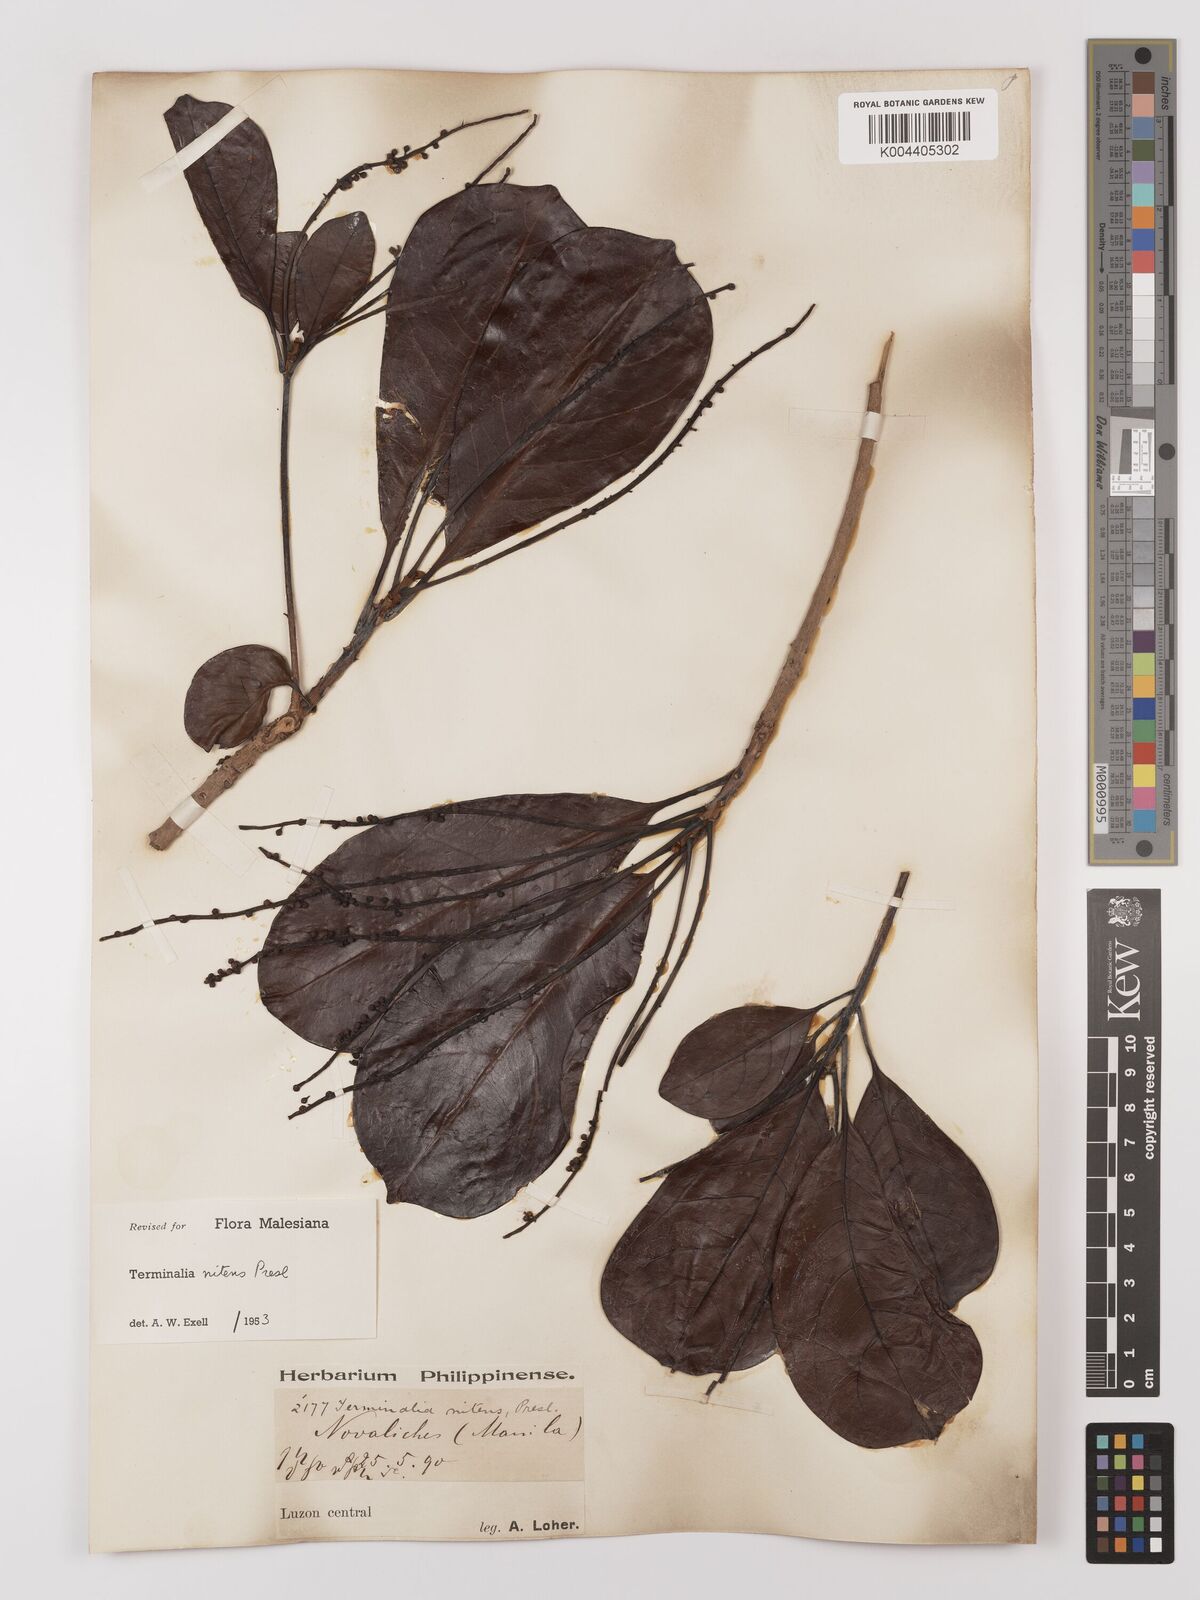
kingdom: Plantae
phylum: Tracheophyta
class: Magnoliopsida
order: Myrtales
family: Combretaceae
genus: Terminalia
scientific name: Terminalia nitens
